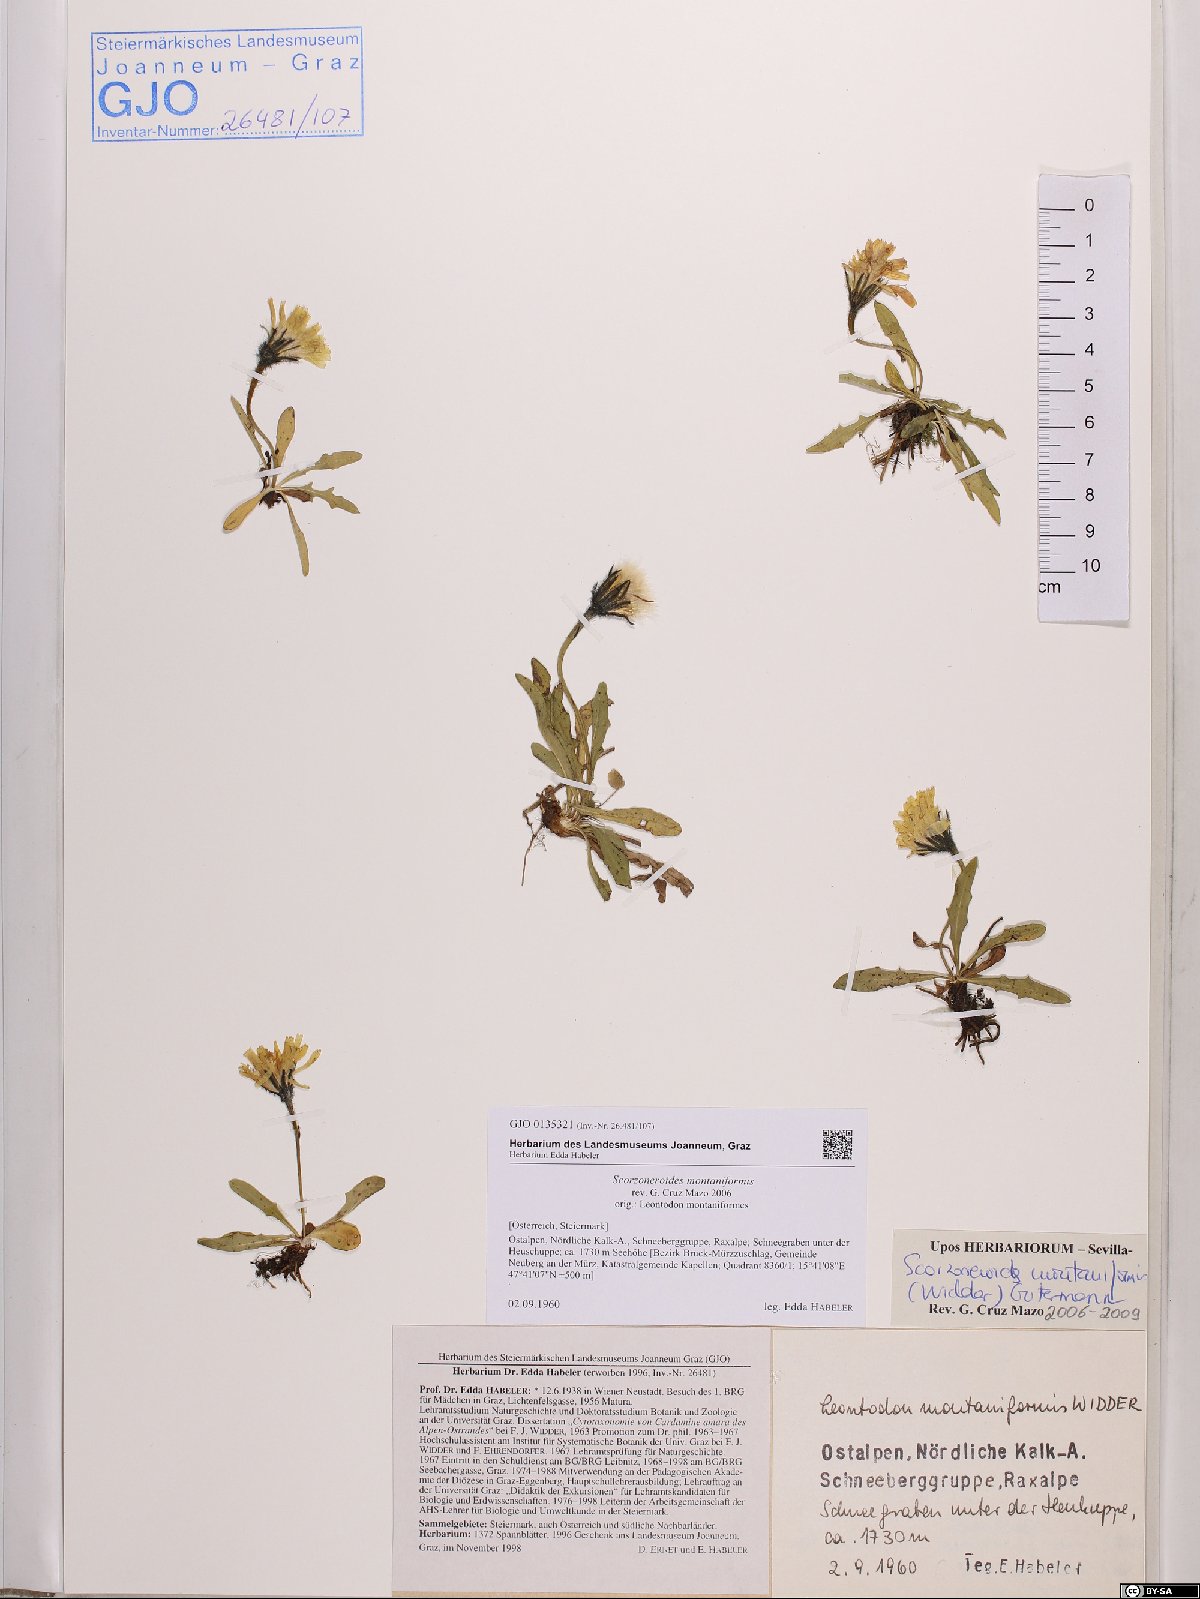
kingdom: Plantae
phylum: Tracheophyta
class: Magnoliopsida
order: Asterales
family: Asteraceae
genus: Scorzoneroides
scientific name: Scorzoneroides montana
